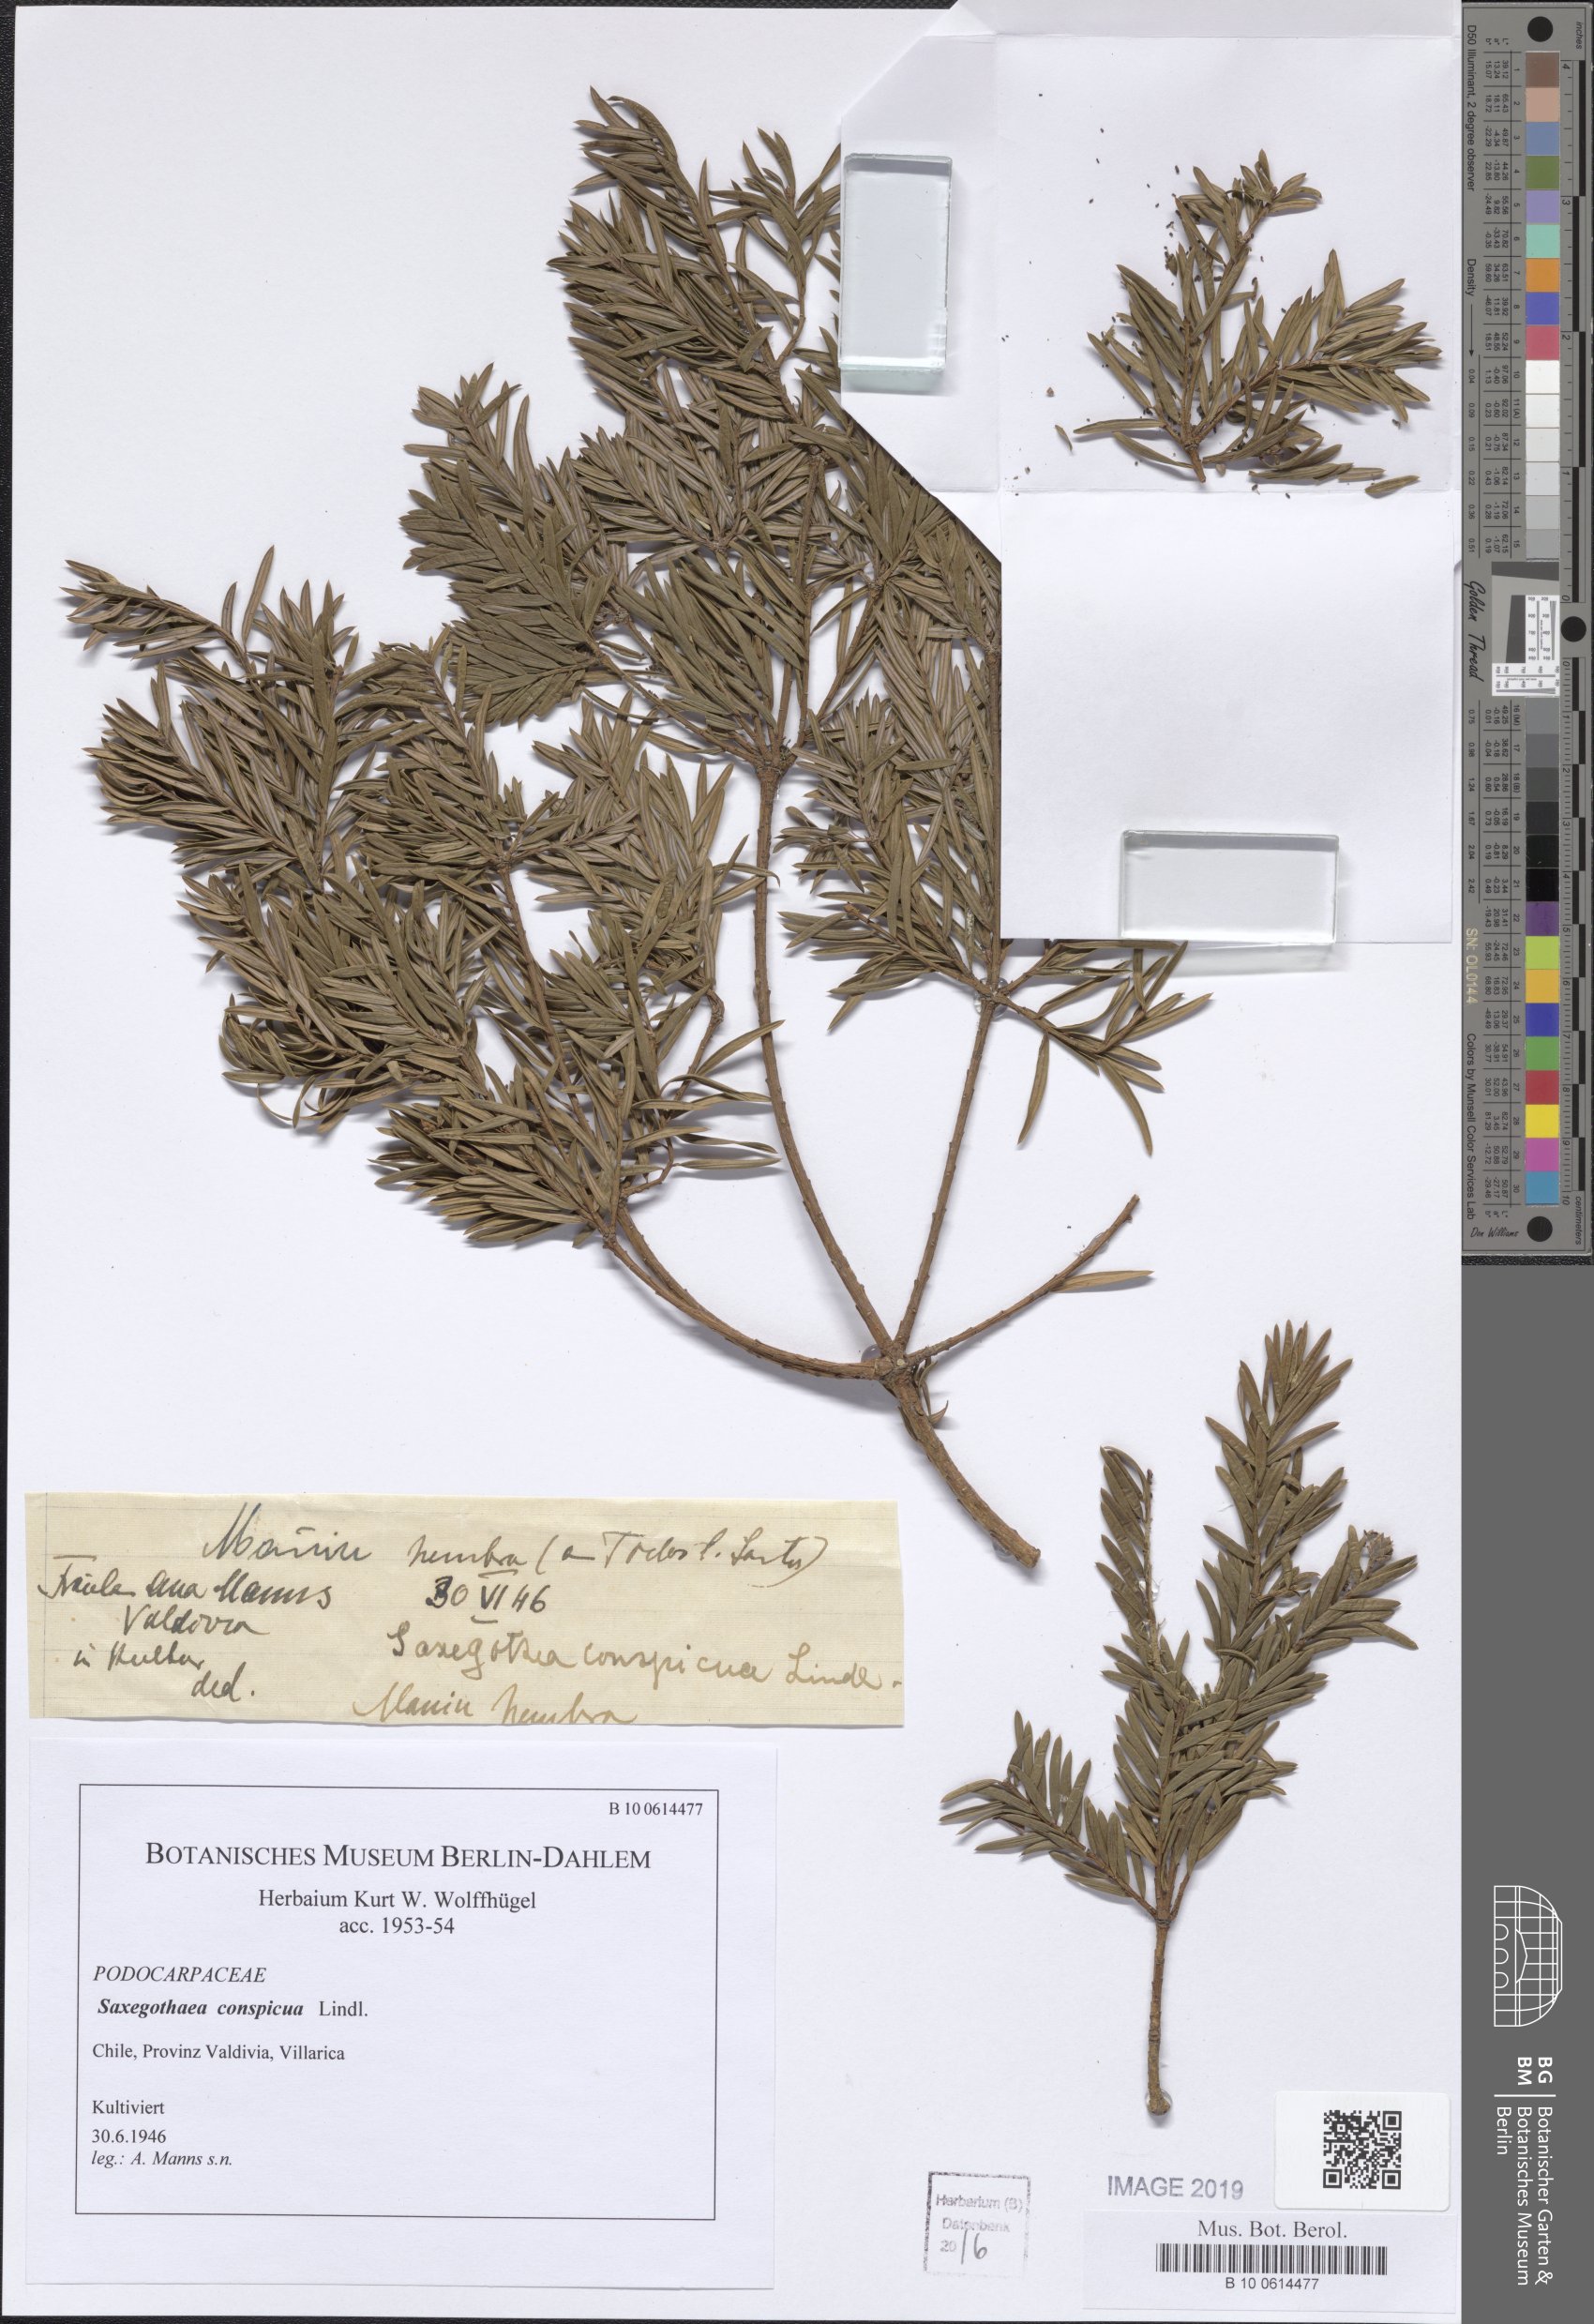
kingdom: Plantae
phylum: Tracheophyta
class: Pinopsida
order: Pinales
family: Podocarpaceae
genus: Saxegothaea
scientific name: Saxegothaea conspicua
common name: Prince albert's yew
